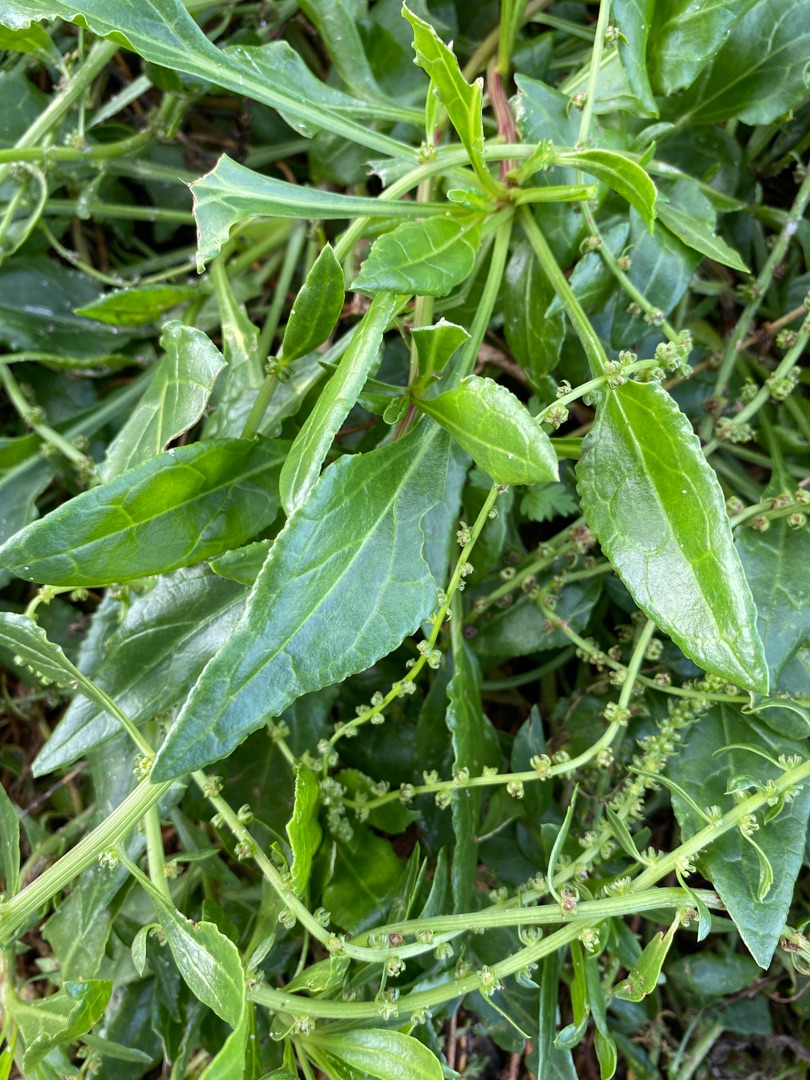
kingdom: Plantae
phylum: Tracheophyta
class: Magnoliopsida
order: Caryophyllales
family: Amaranthaceae
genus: Beta
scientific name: Beta maritima
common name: Strand-bede
